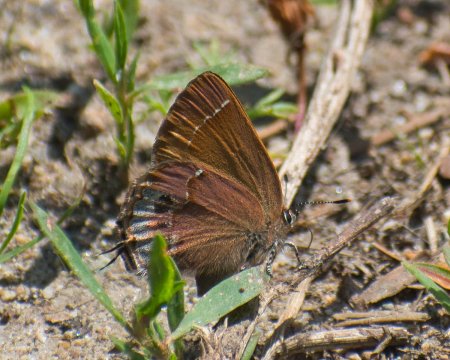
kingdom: Animalia
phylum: Arthropoda
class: Insecta
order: Lepidoptera
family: Lycaenidae
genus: Mitoura
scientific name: Mitoura gryneus
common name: Juniper Hairstreak
